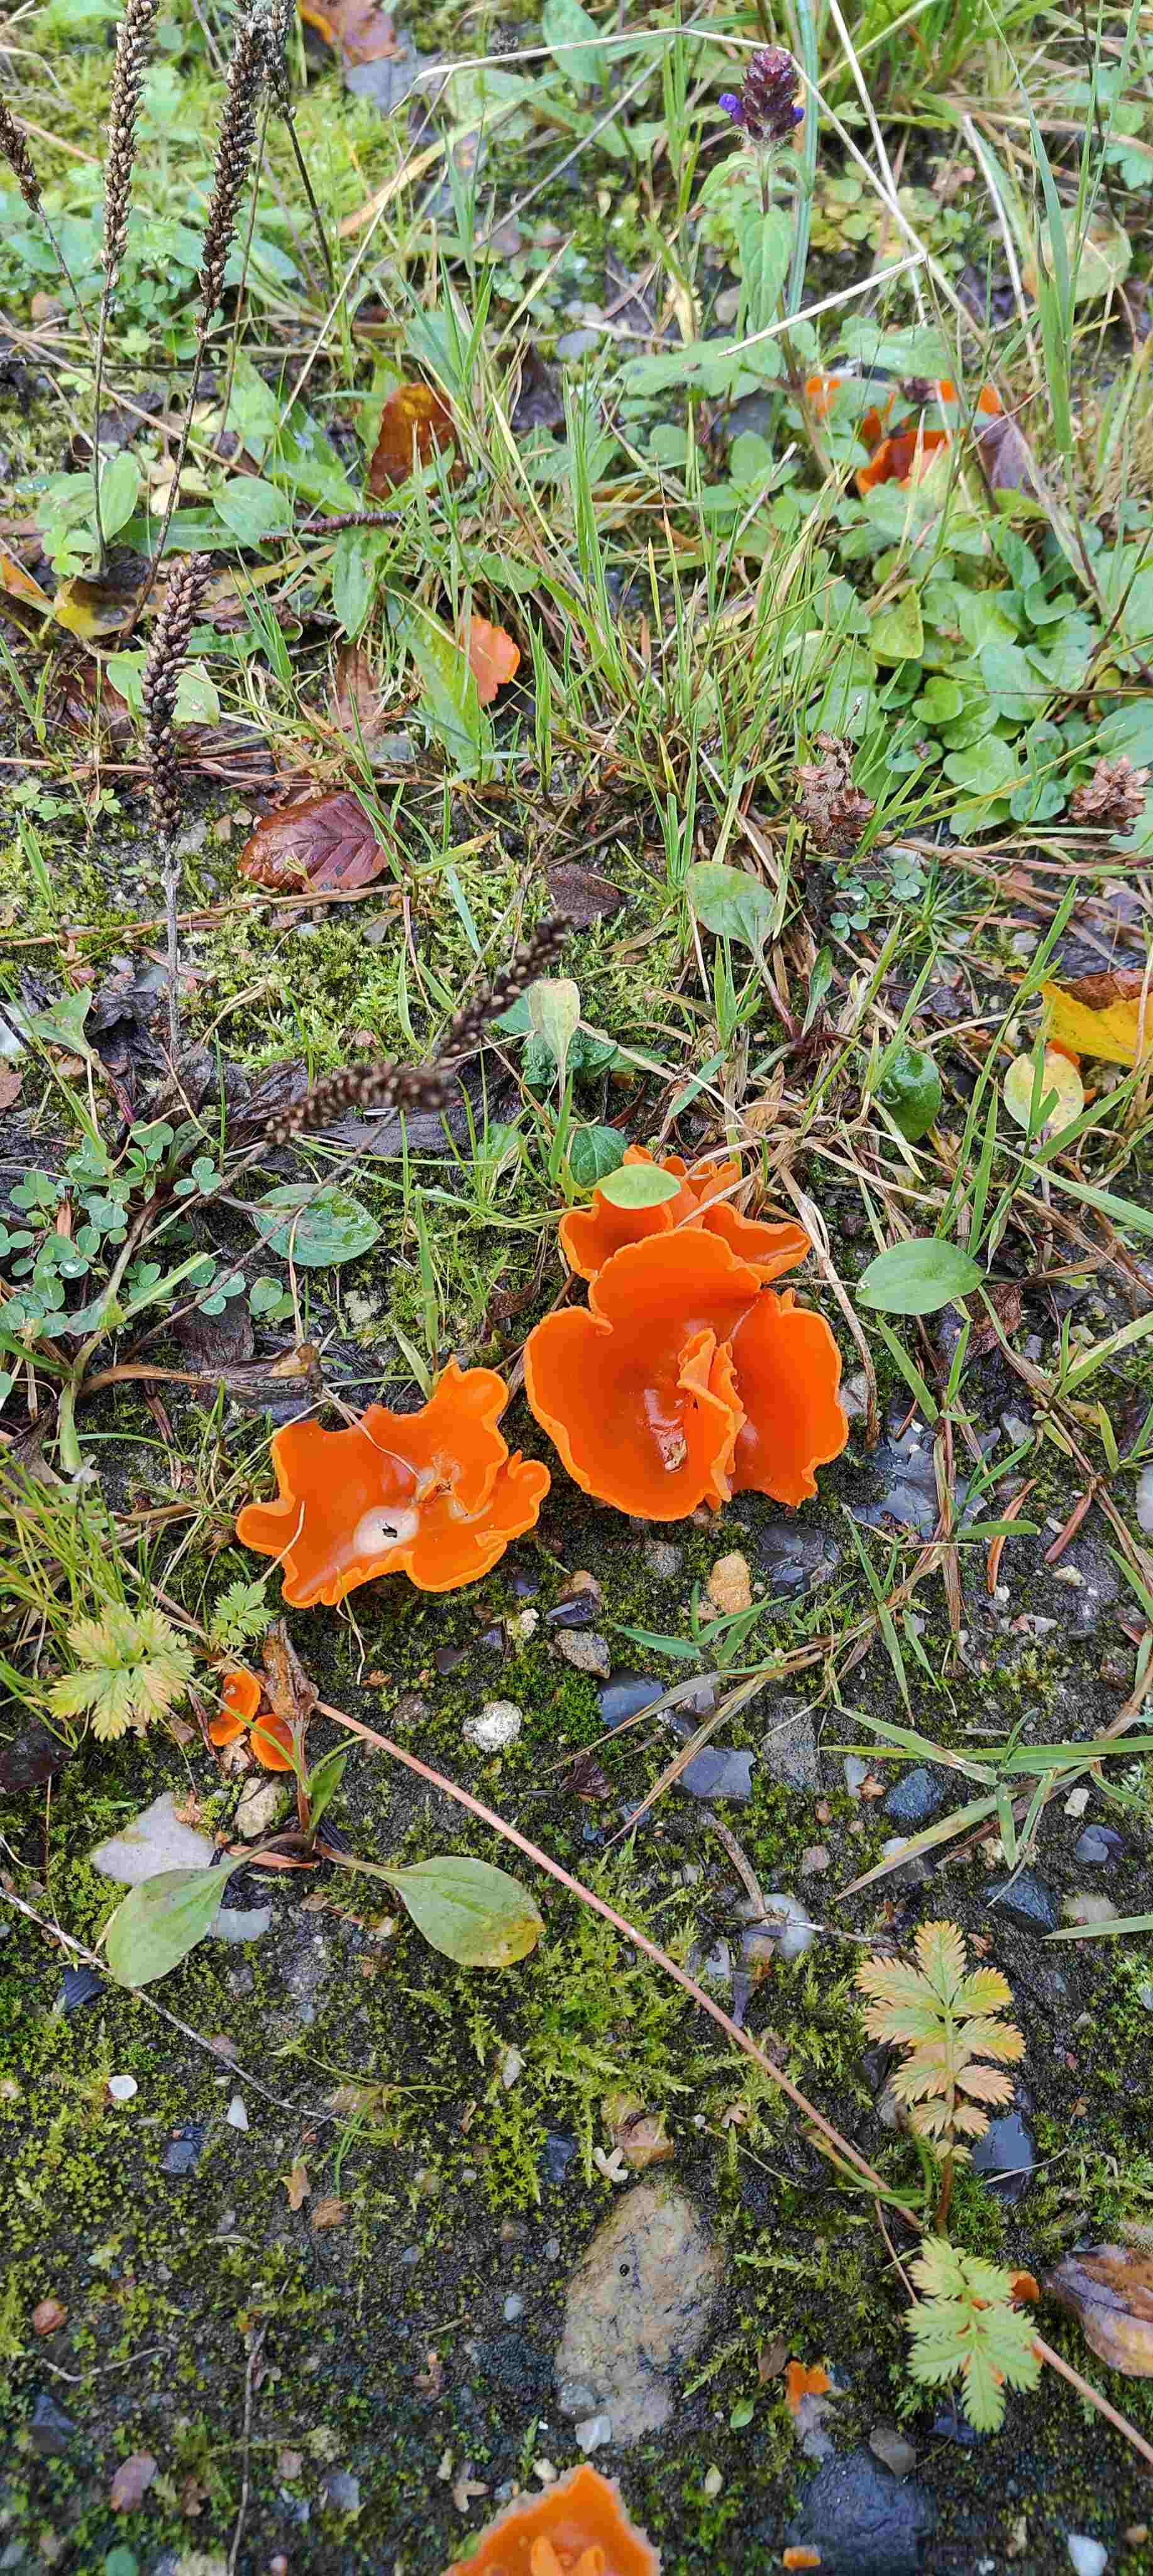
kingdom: Fungi
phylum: Ascomycota
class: Pezizomycetes
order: Pezizales
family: Pyronemataceae
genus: Aleuria
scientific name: Aleuria aurantia
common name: almindelig orangebæger
